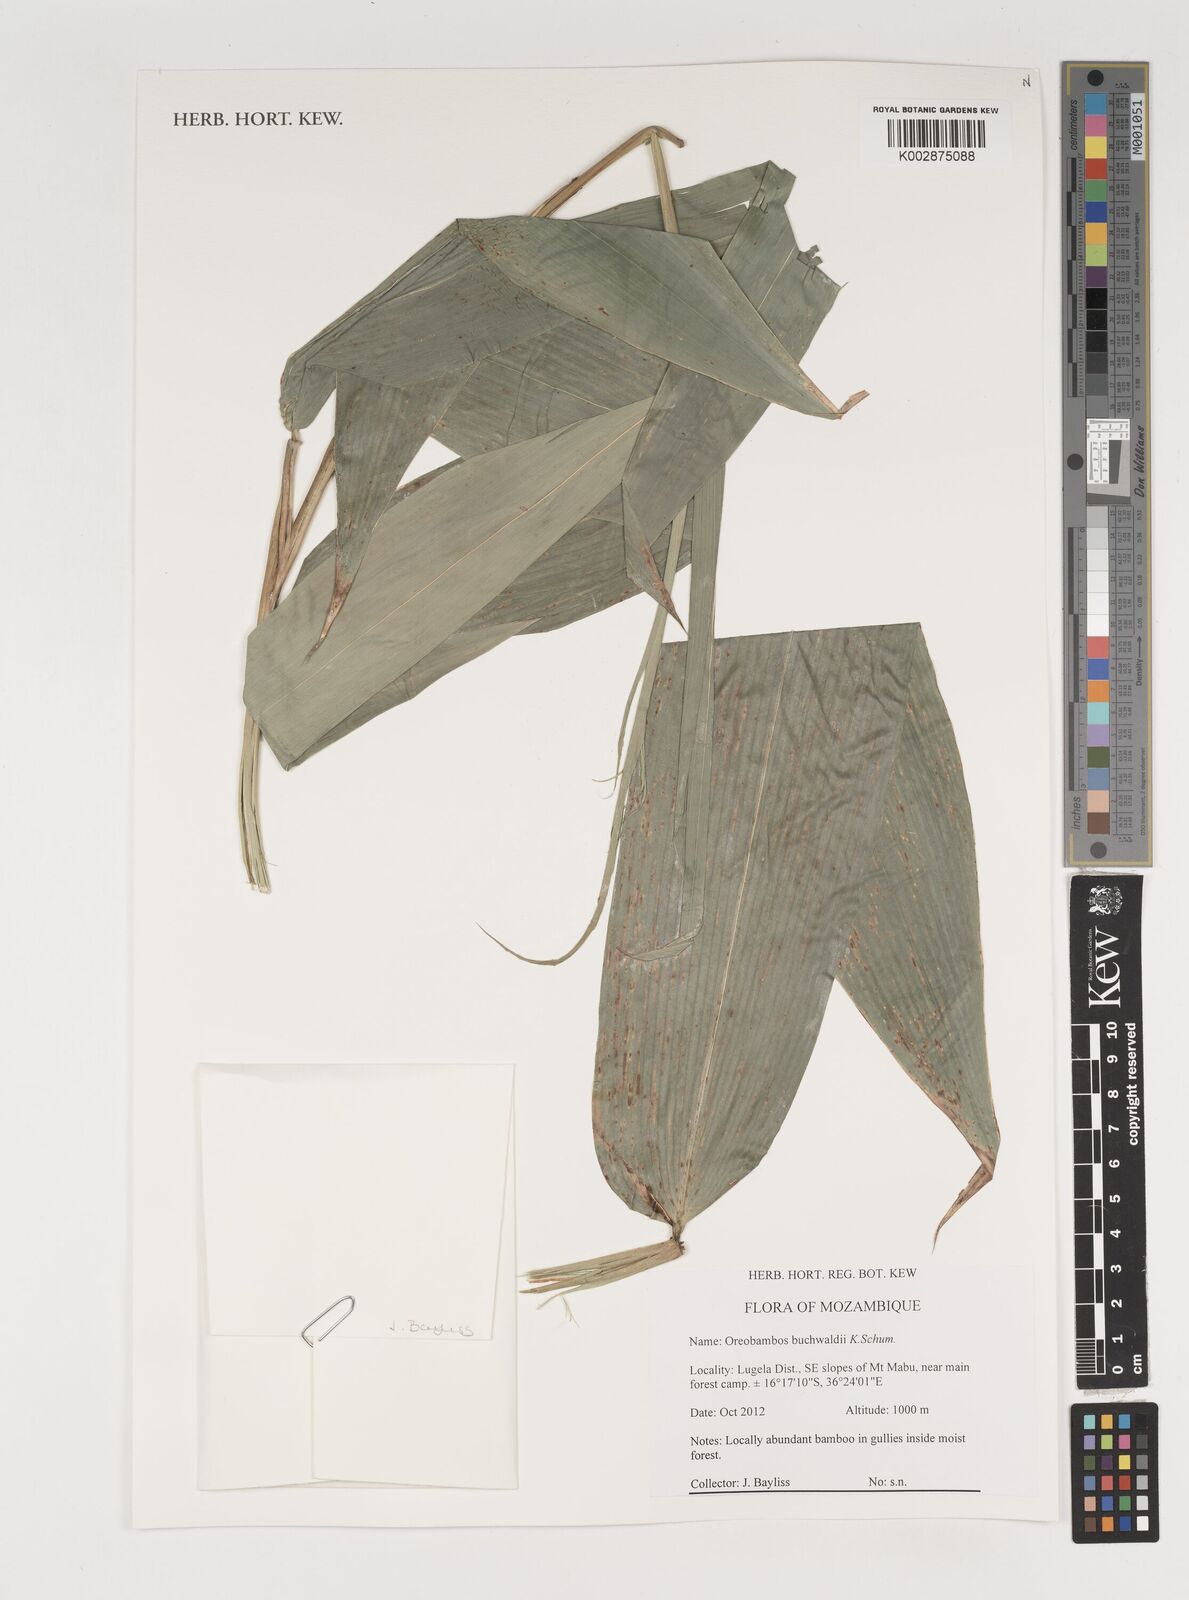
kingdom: Plantae
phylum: Tracheophyta
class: Liliopsida
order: Poales
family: Poaceae
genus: Oreobambos
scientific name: Oreobambos buchwaldii
